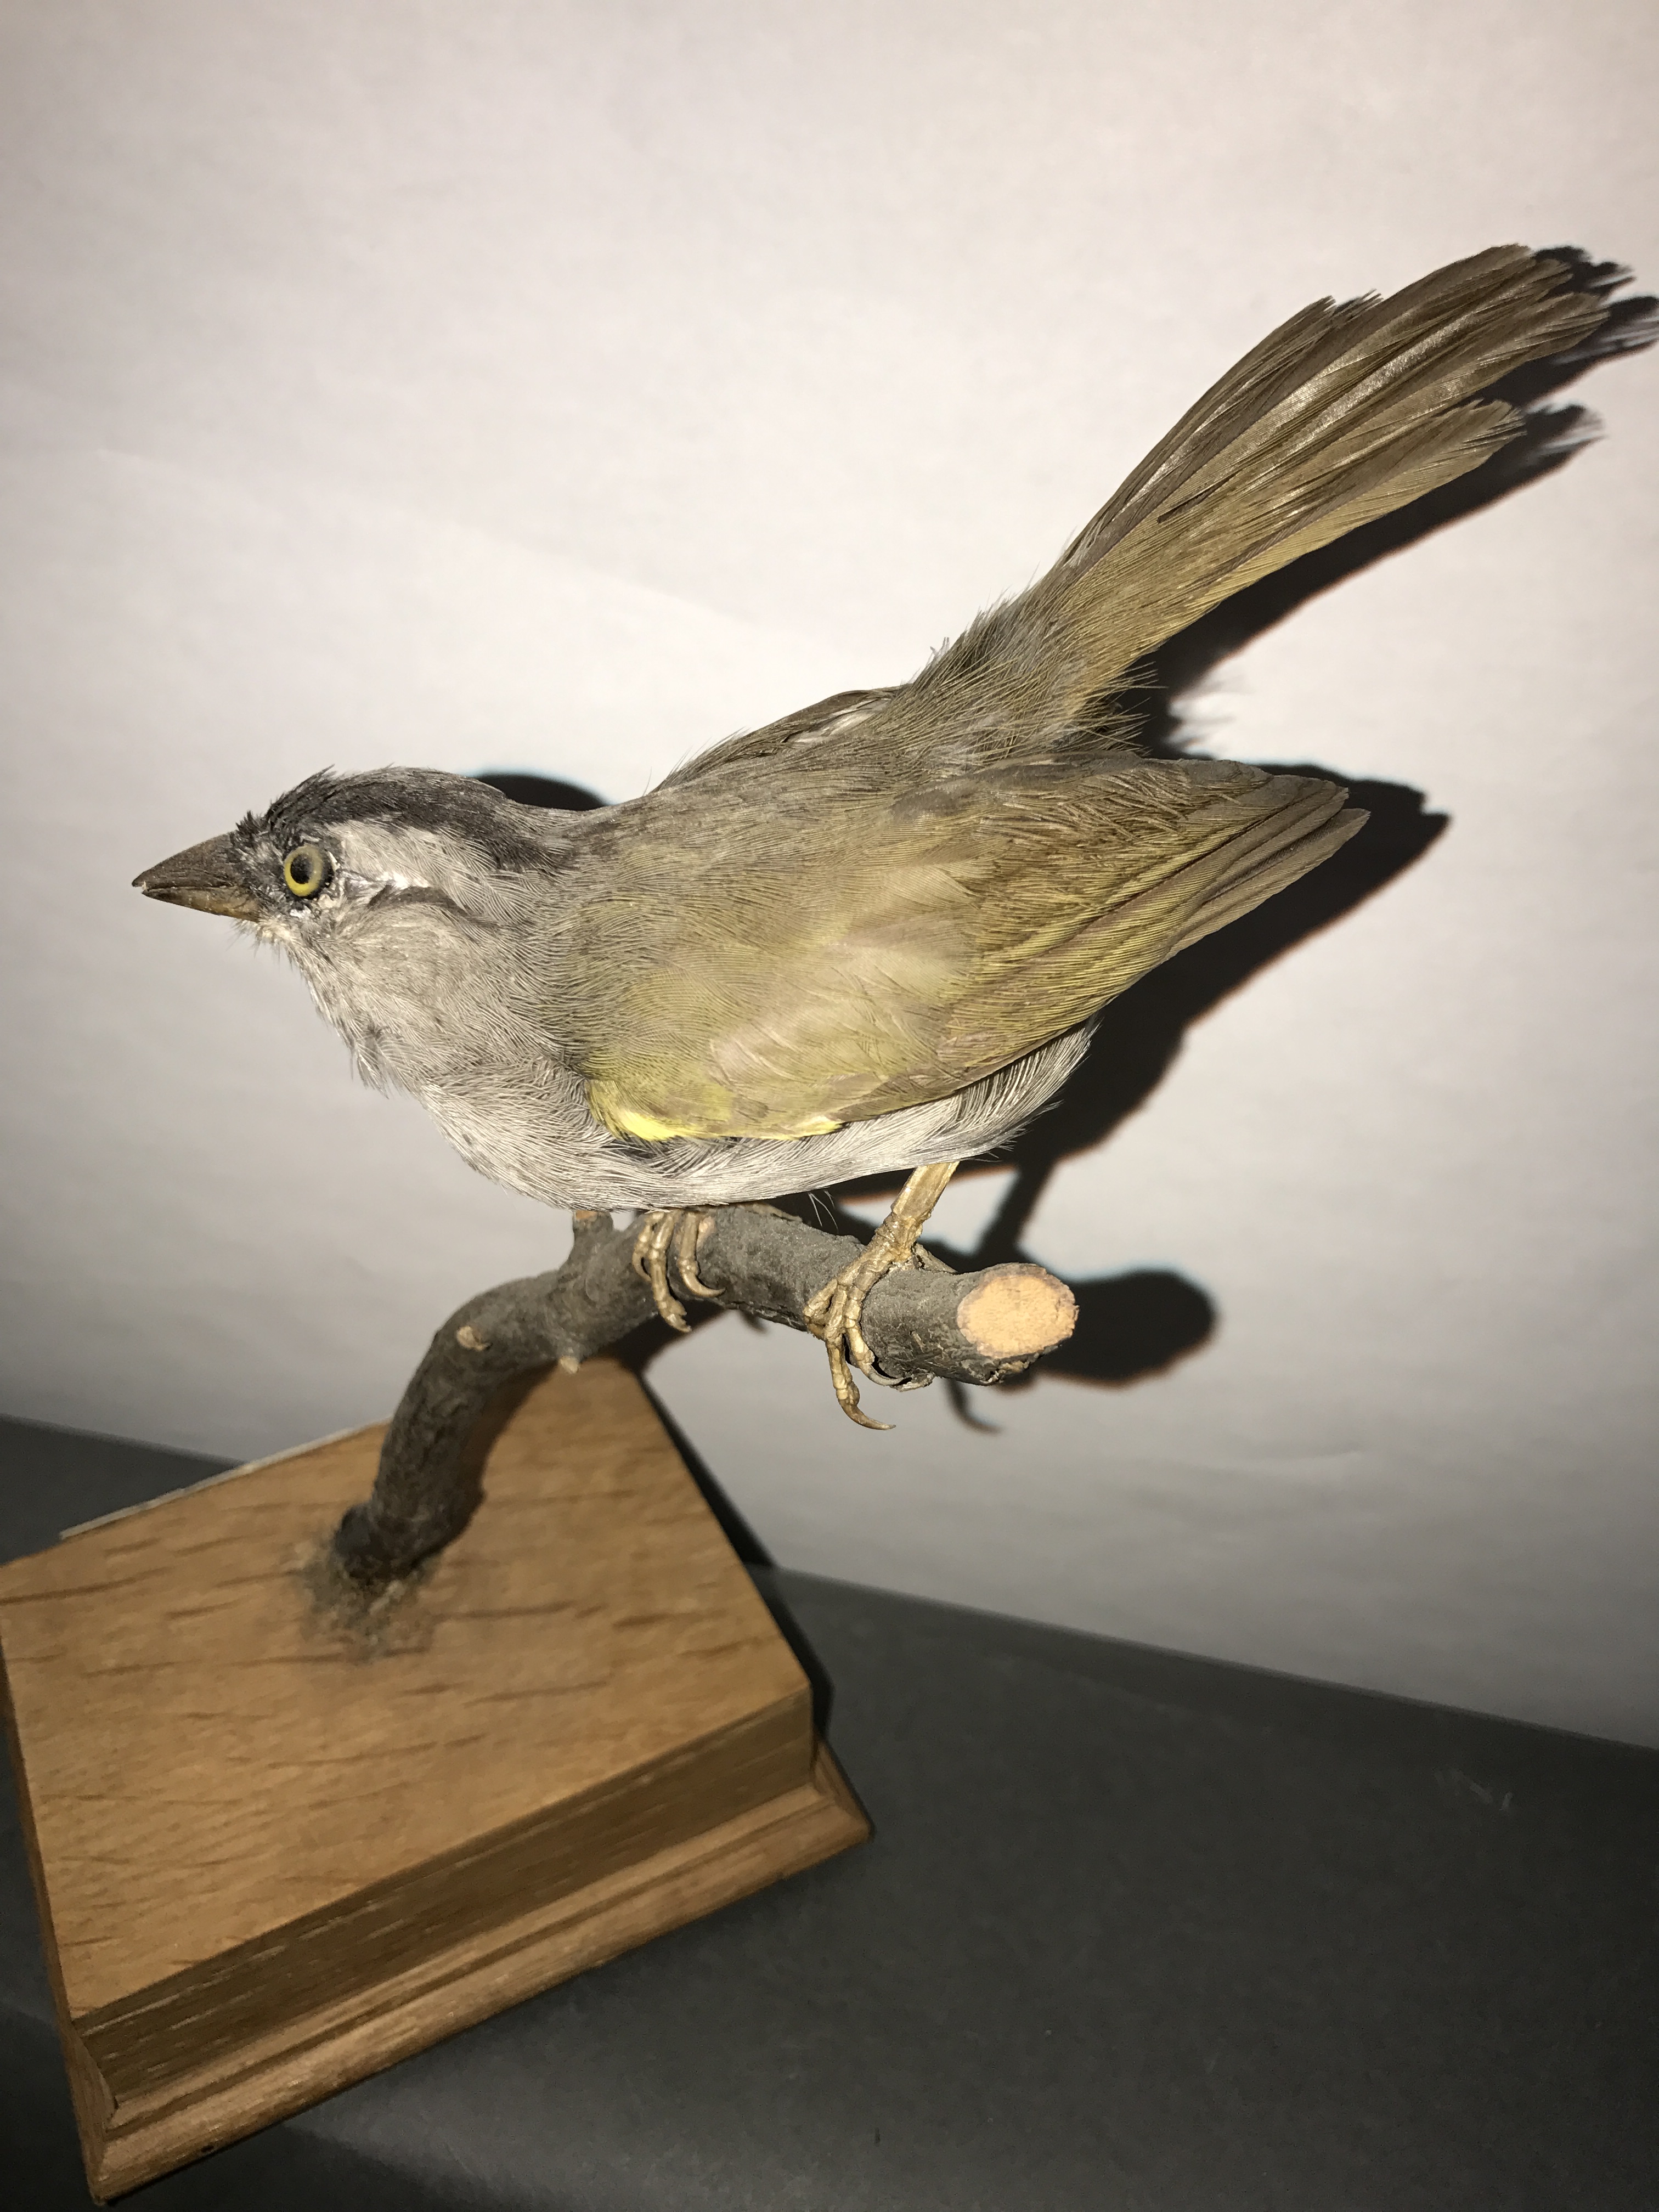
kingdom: Animalia
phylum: Chordata
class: Aves
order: Passeriformes
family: Passerellidae
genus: Arremonops
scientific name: Arremonops conirostris
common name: Black-striped sparrow
